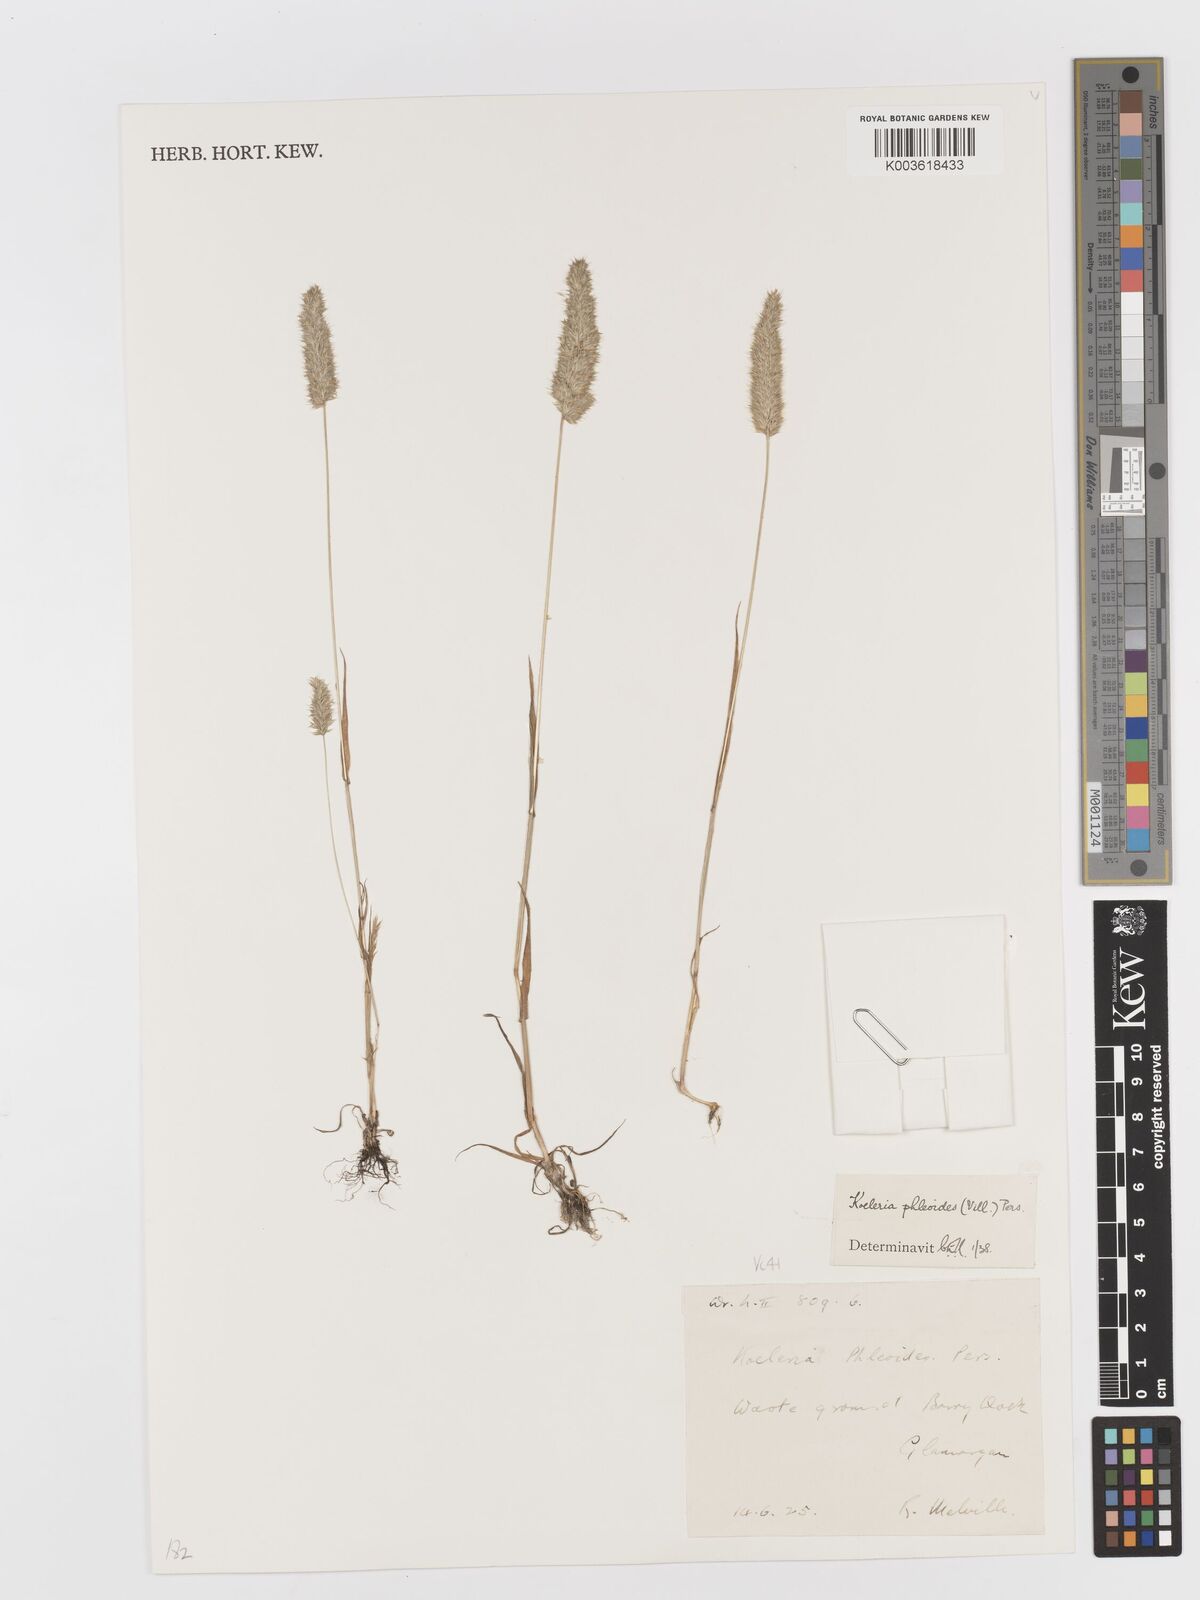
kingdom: Plantae
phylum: Tracheophyta
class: Liliopsida
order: Poales
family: Poaceae
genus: Rostraria
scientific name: Rostraria cristata
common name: Mediterranean hair-grass
